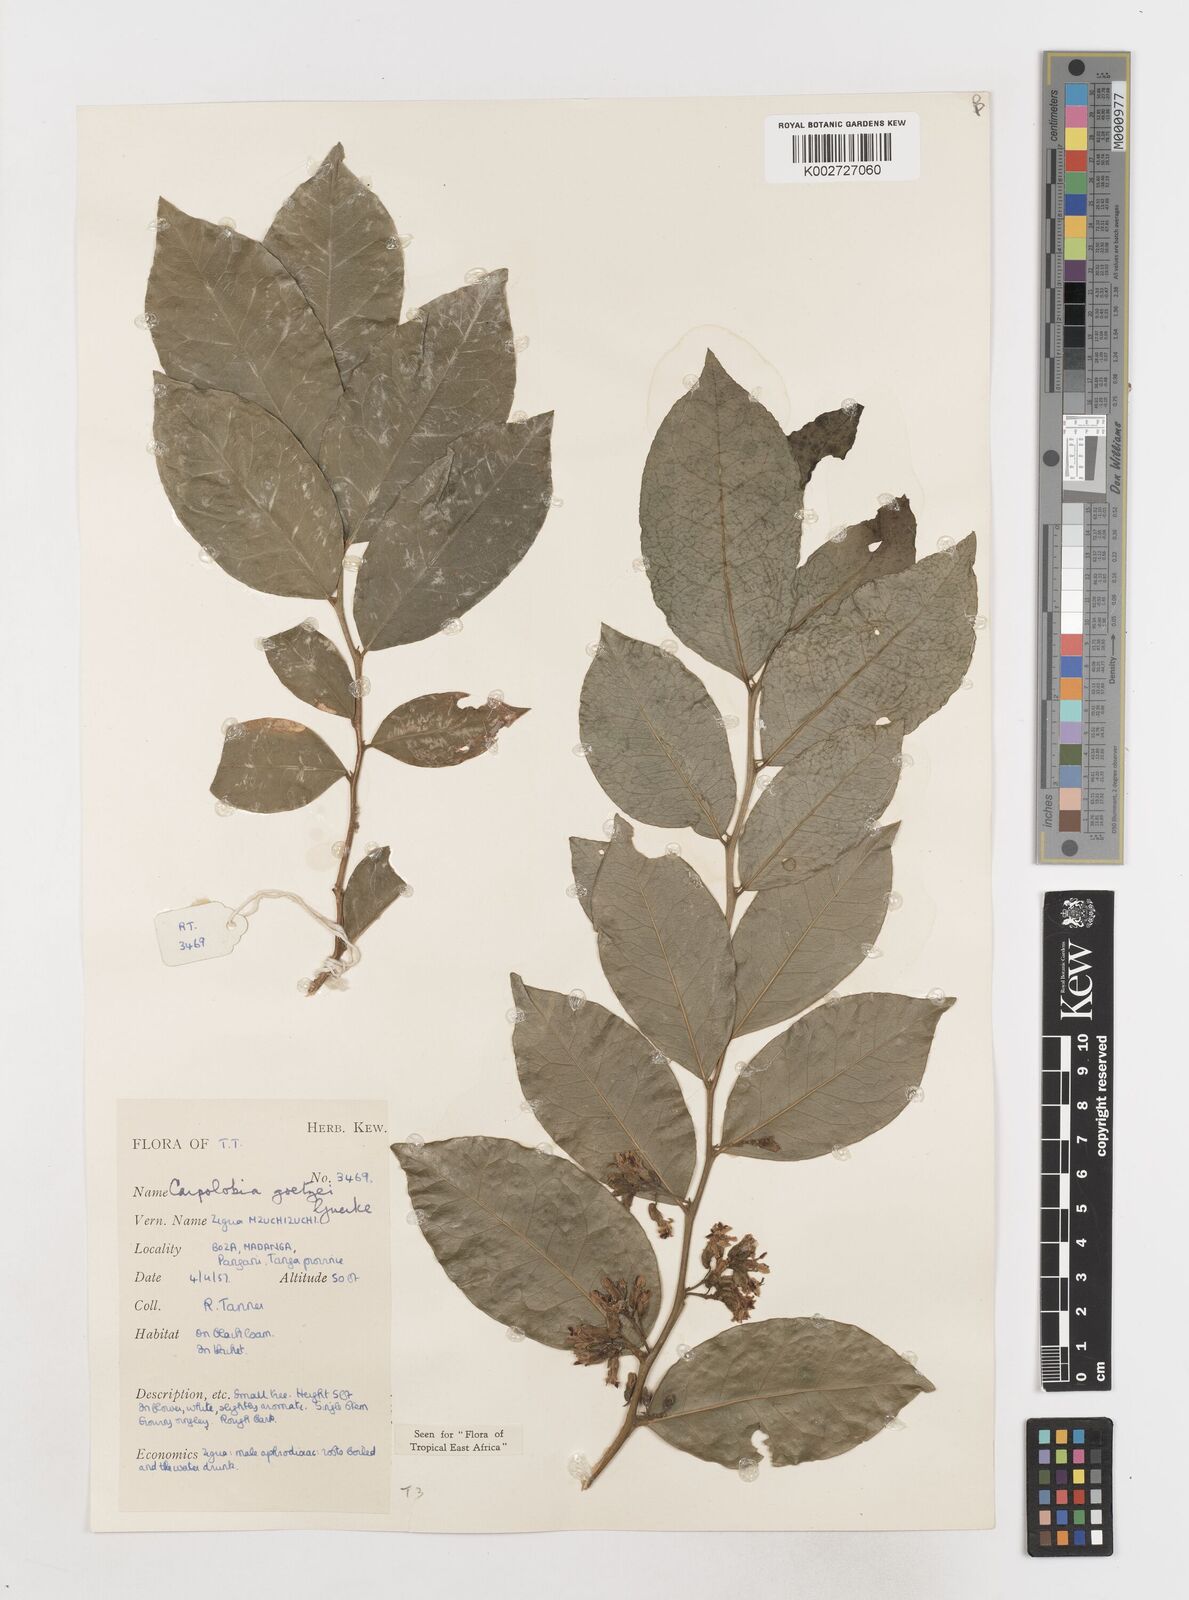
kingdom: Plantae
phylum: Tracheophyta
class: Magnoliopsida
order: Fabales
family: Polygalaceae
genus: Carpolobia
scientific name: Carpolobia goetzei
